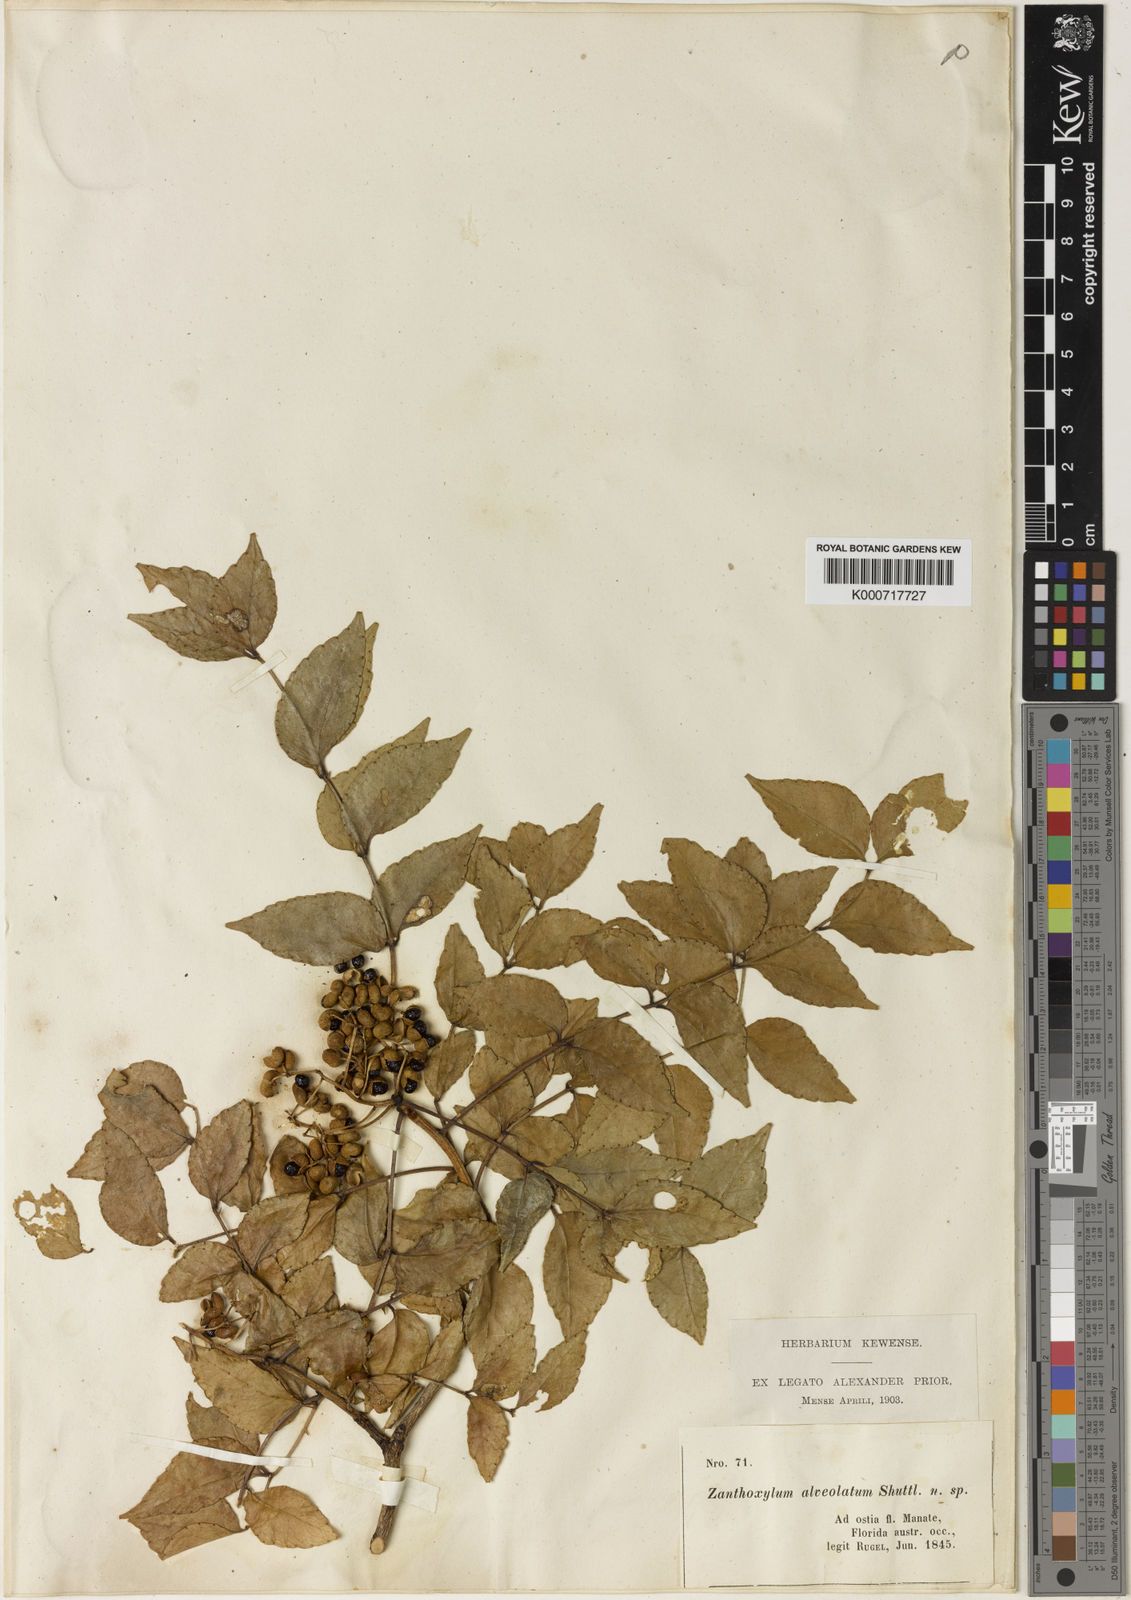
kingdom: Plantae
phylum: Tracheophyta
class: Magnoliopsida
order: Sapindales
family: Rutaceae
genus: Zanthoxylum
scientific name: Zanthoxylum clava-herculis
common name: Hercules'-club
